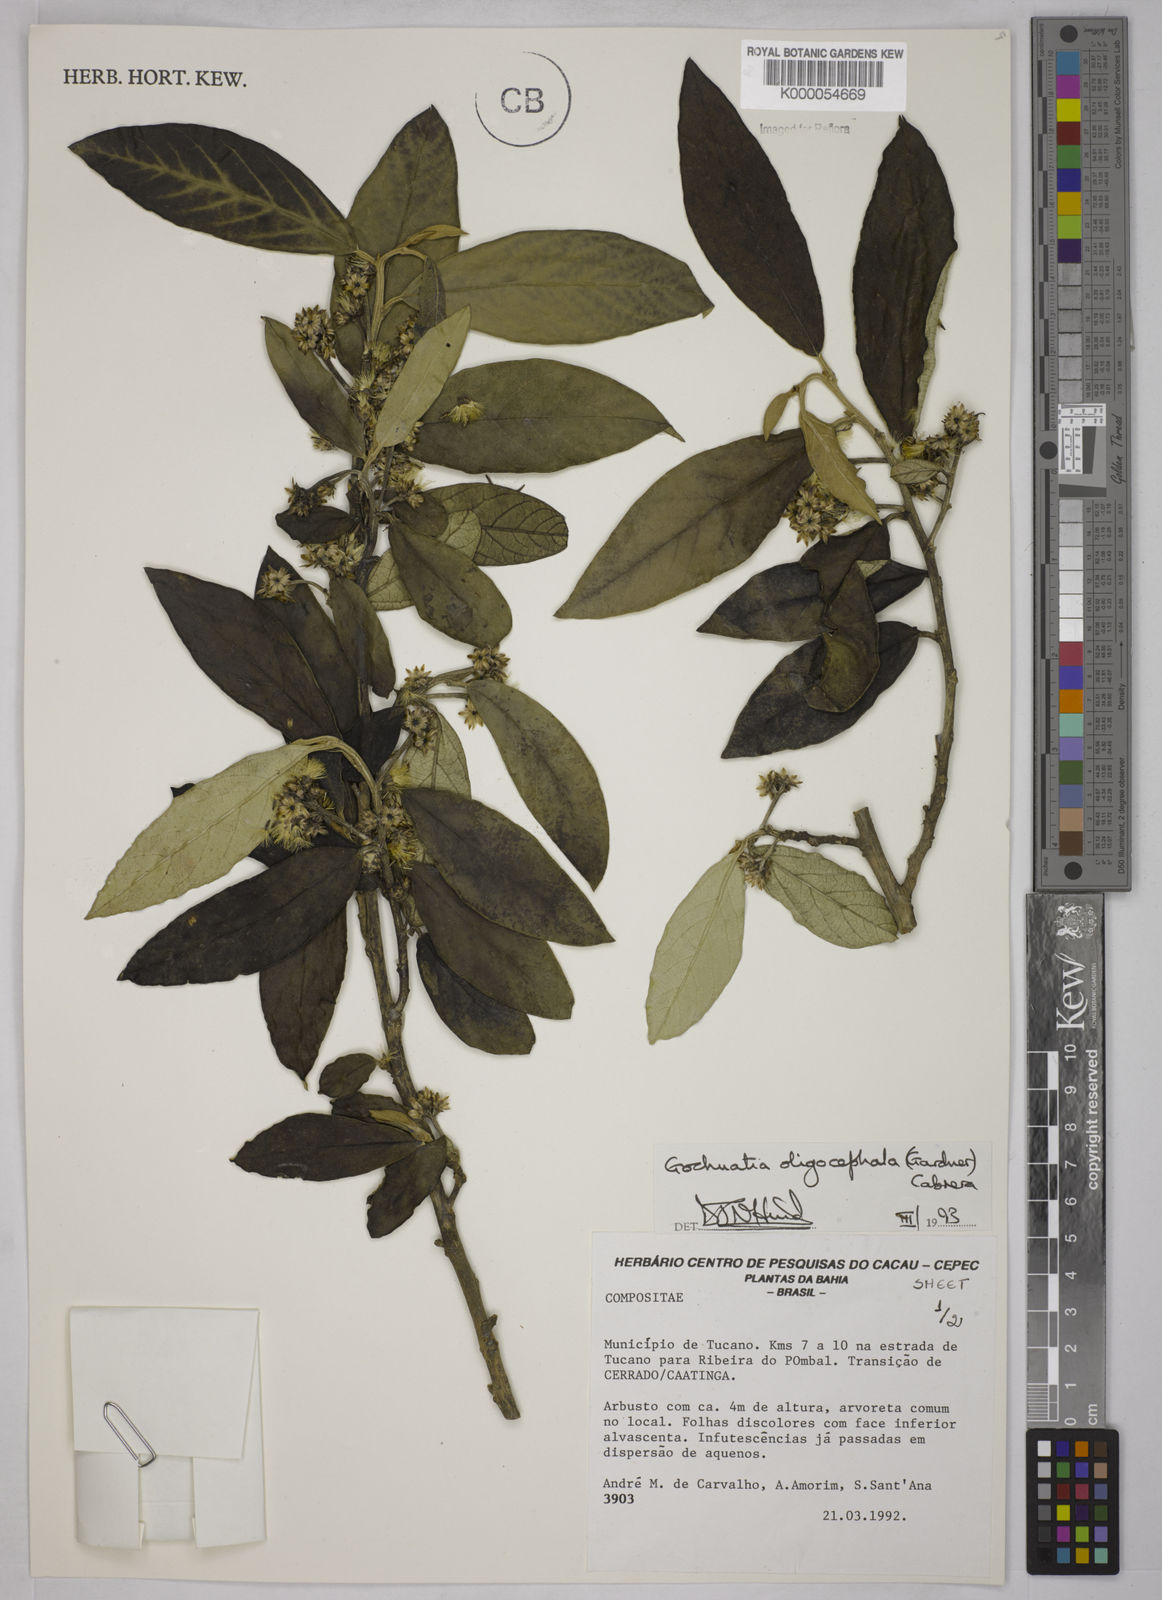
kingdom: Plantae
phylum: Tracheophyta
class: Magnoliopsida
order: Asterales
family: Asteraceae
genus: Moquiniastrum
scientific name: Moquiniastrum oligocephalum
